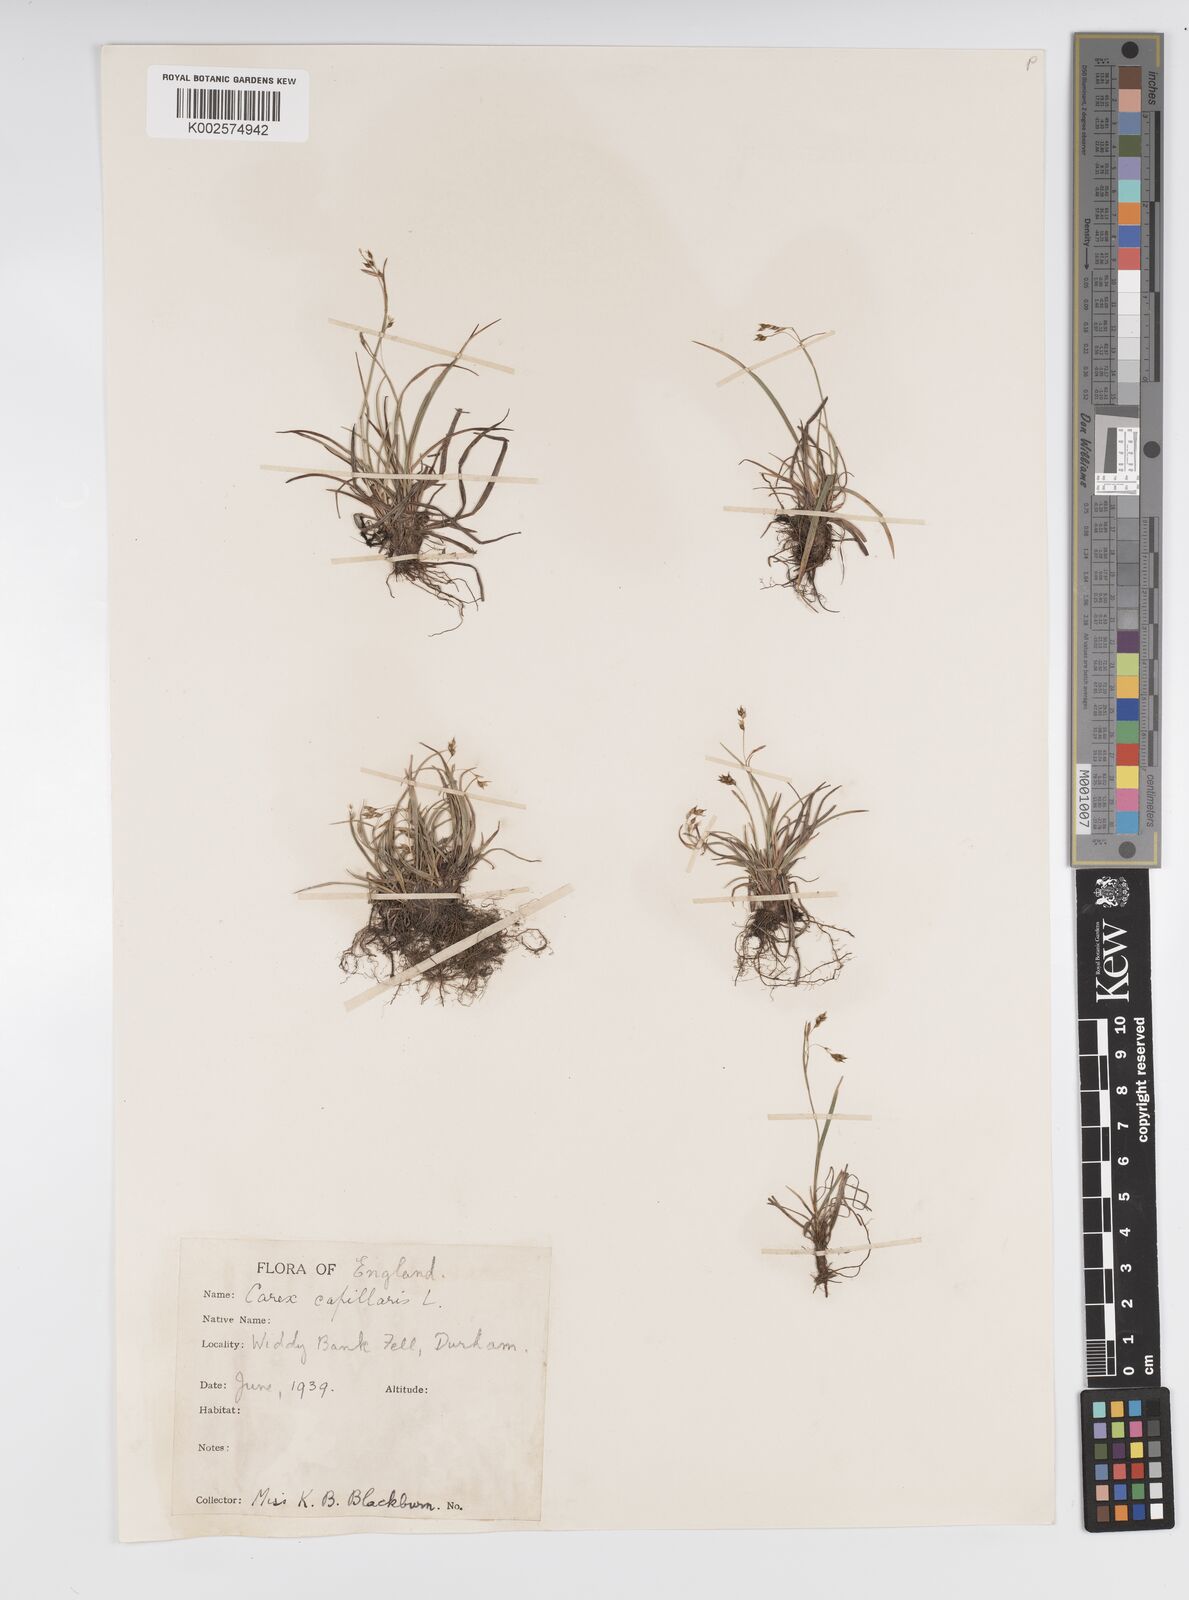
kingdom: Plantae
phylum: Tracheophyta
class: Liliopsida
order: Poales
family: Cyperaceae
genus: Carex
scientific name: Carex capillaris
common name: Hair sedge
